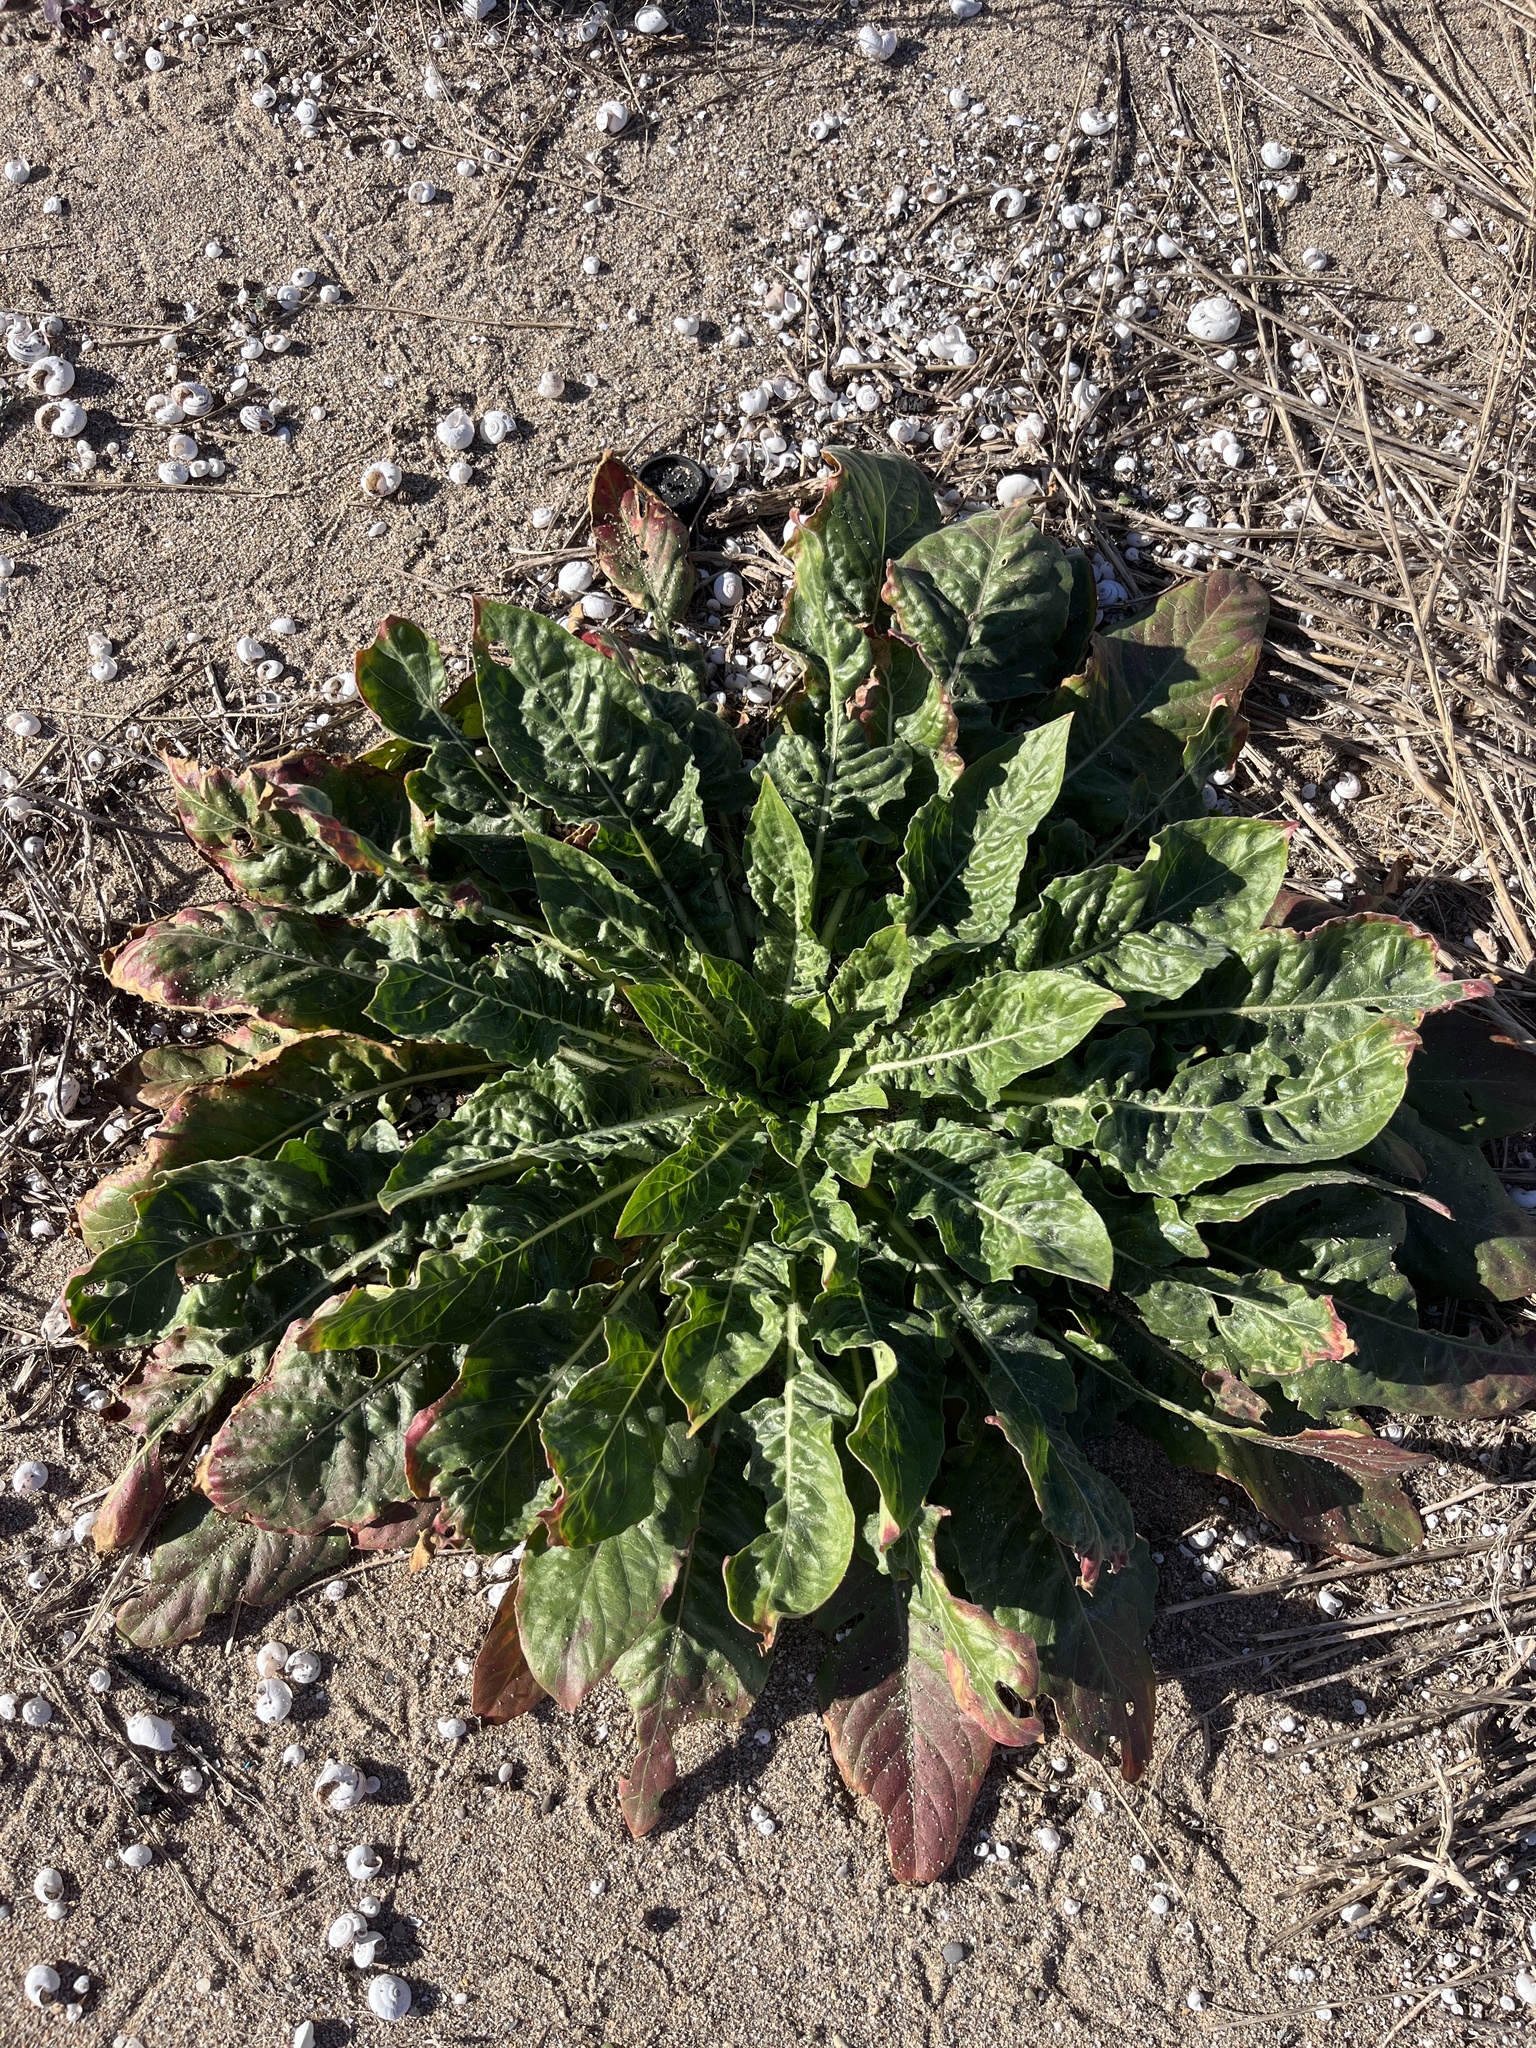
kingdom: Plantae
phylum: Tracheophyta
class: Magnoliopsida
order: Myrtales
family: Onagraceae
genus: Oenothera
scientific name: Oenothera glazioviana
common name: Large-flowered evening-primrose
